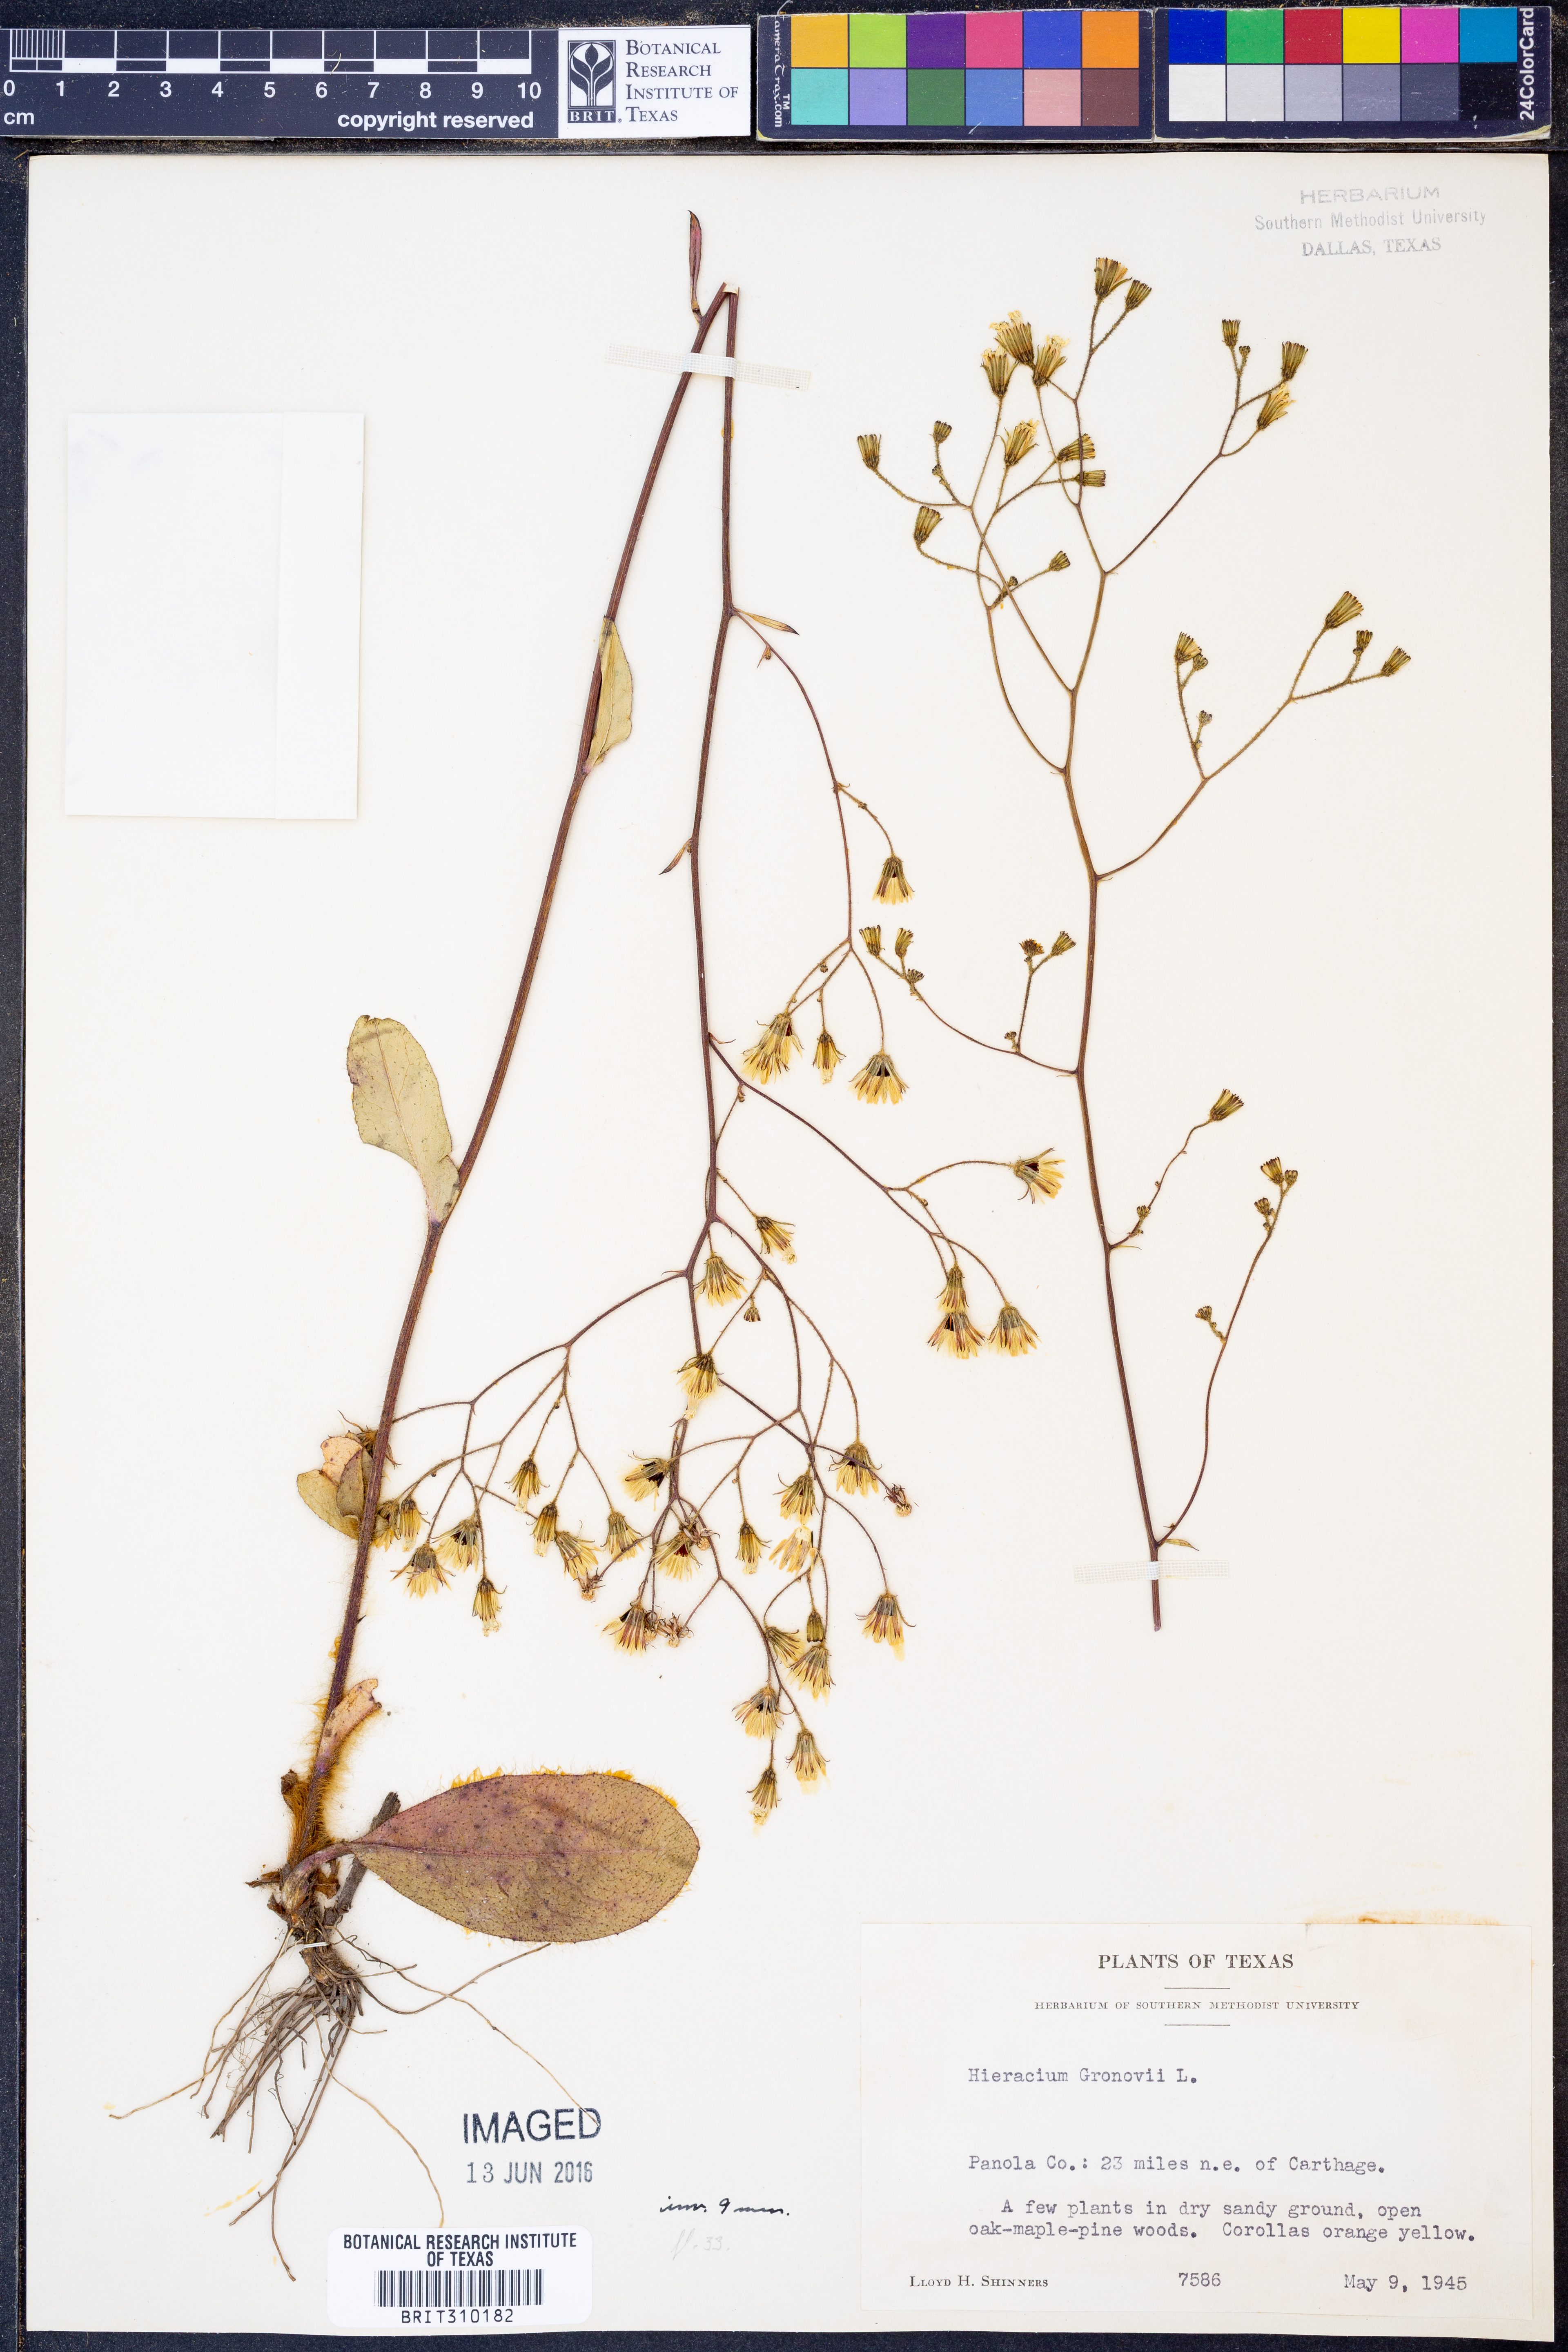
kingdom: Plantae
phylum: Tracheophyta
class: Magnoliopsida
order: Asterales
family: Asteraceae
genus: Hieracium
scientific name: Hieracium gronovii
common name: Beaked hawkweed
